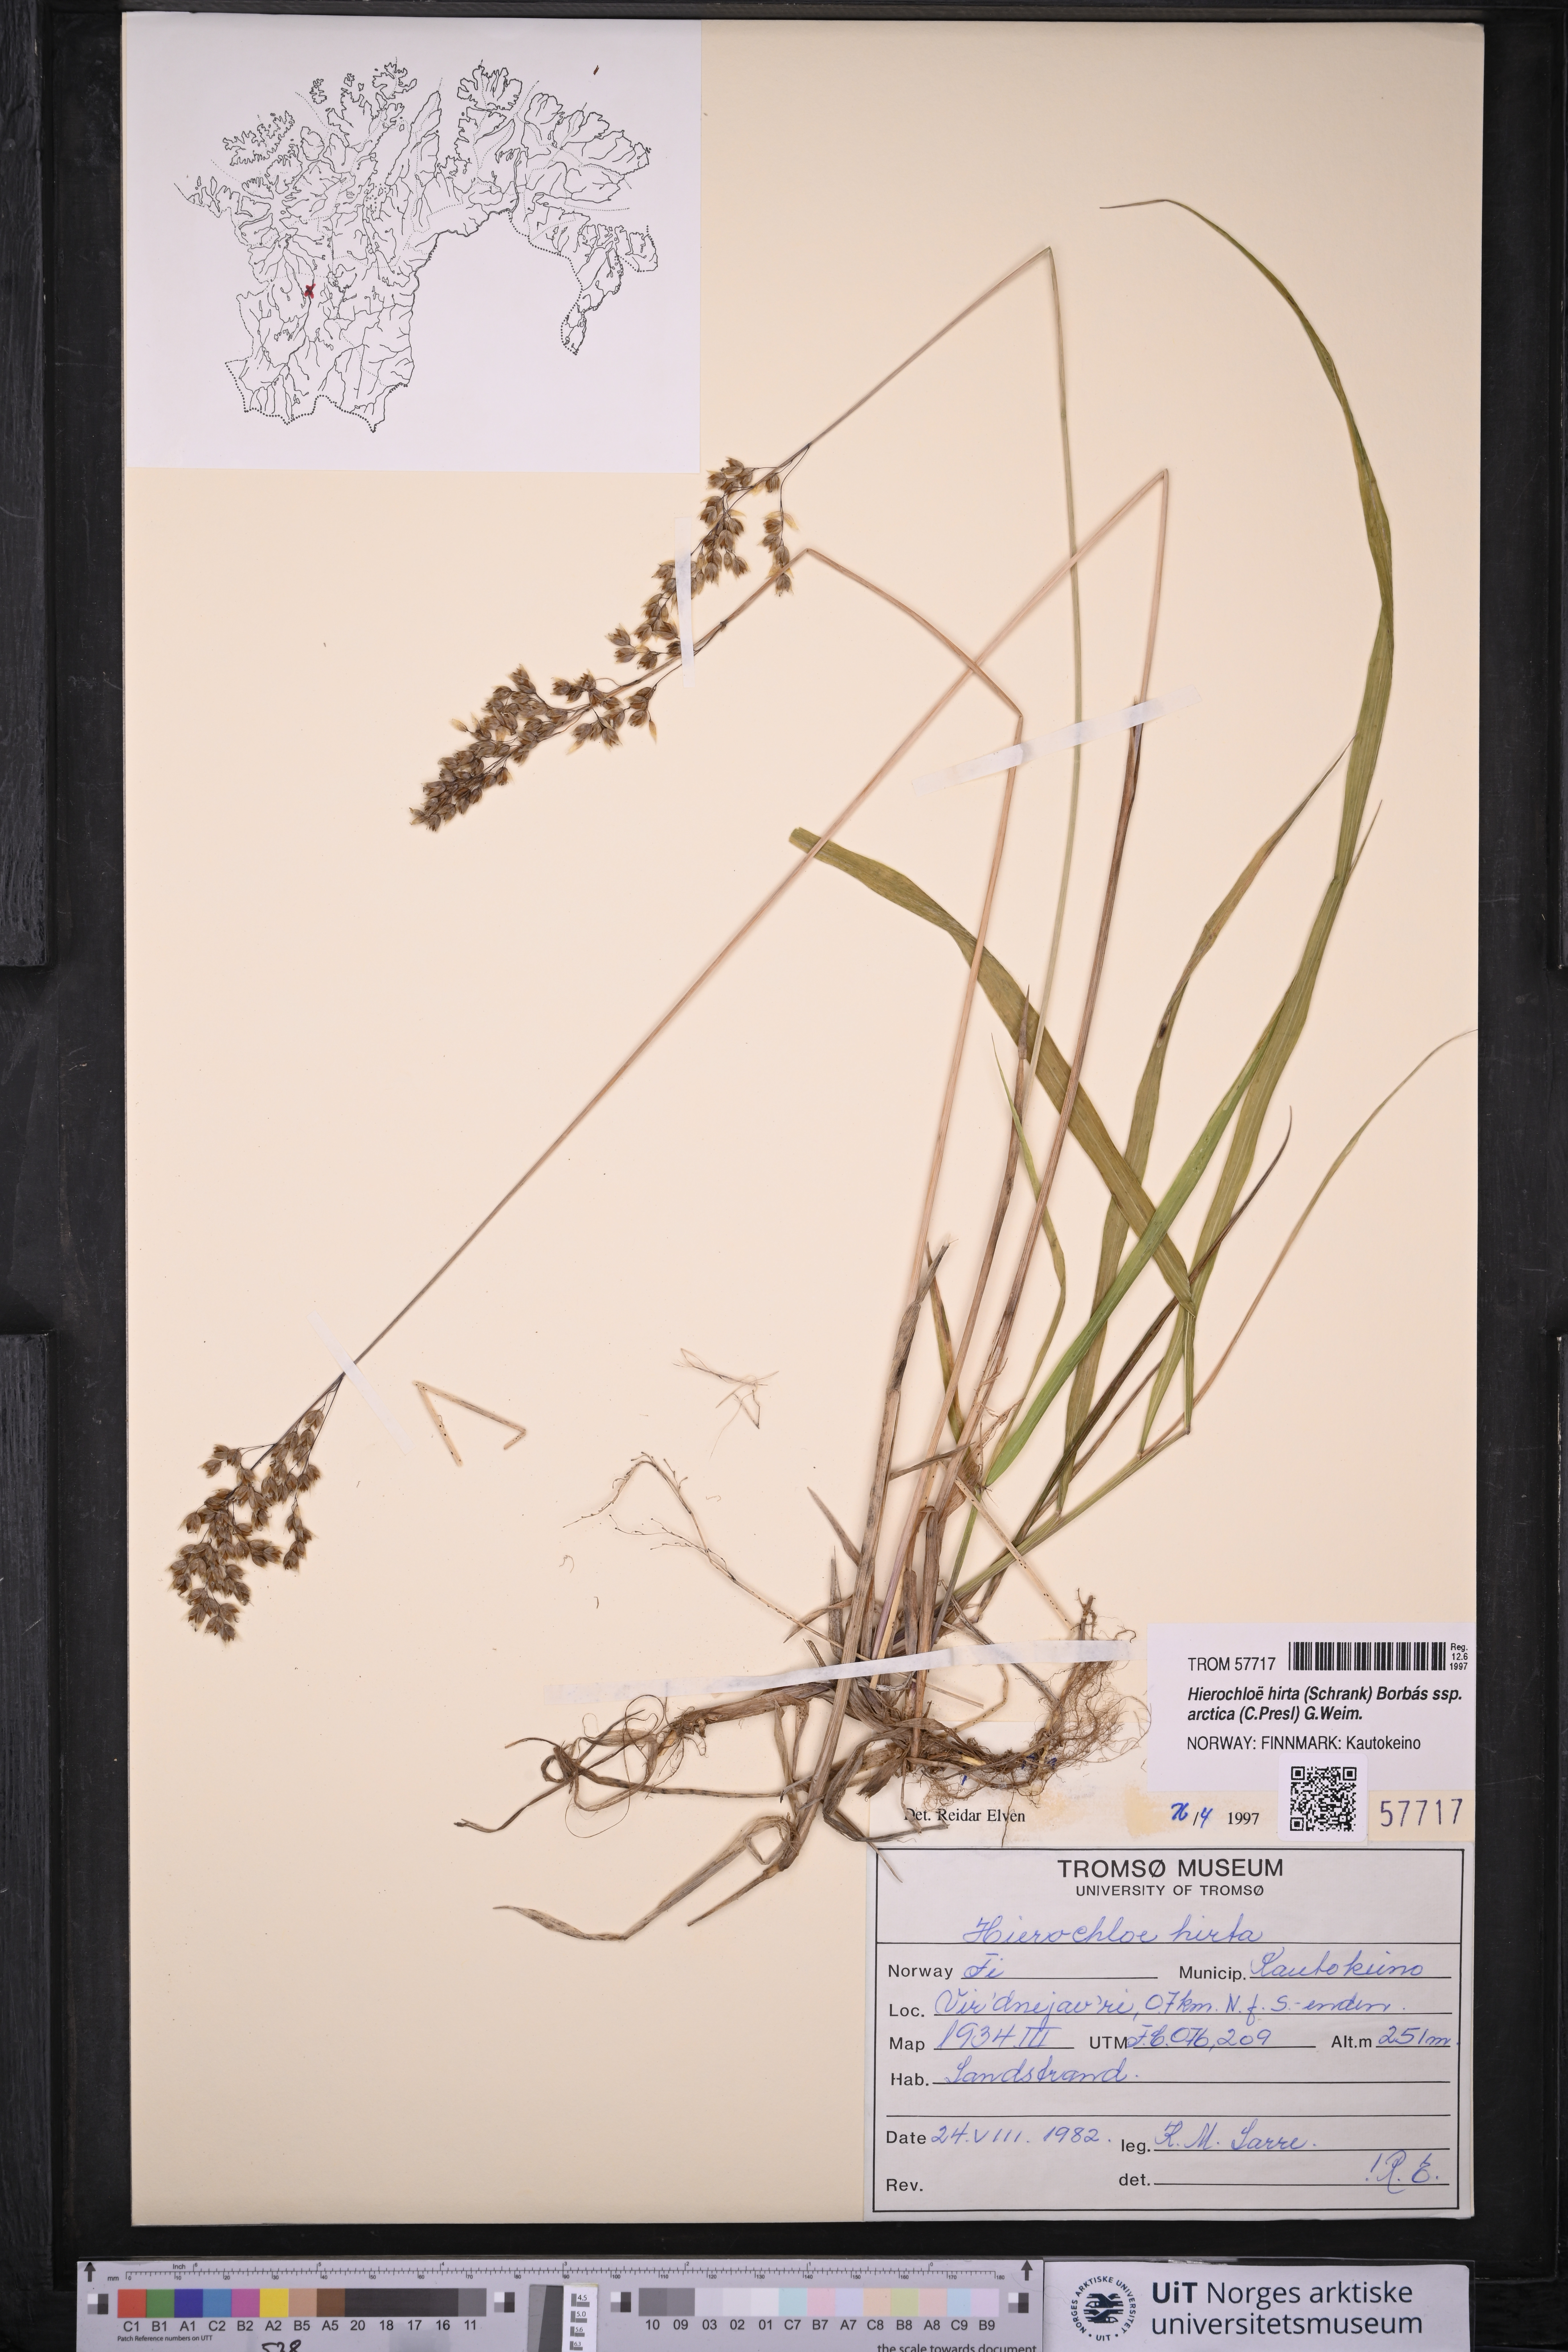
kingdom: Plantae
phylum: Tracheophyta
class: Liliopsida
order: Poales
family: Poaceae
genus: Anthoxanthum
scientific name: Anthoxanthum nitens
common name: Holy grass
